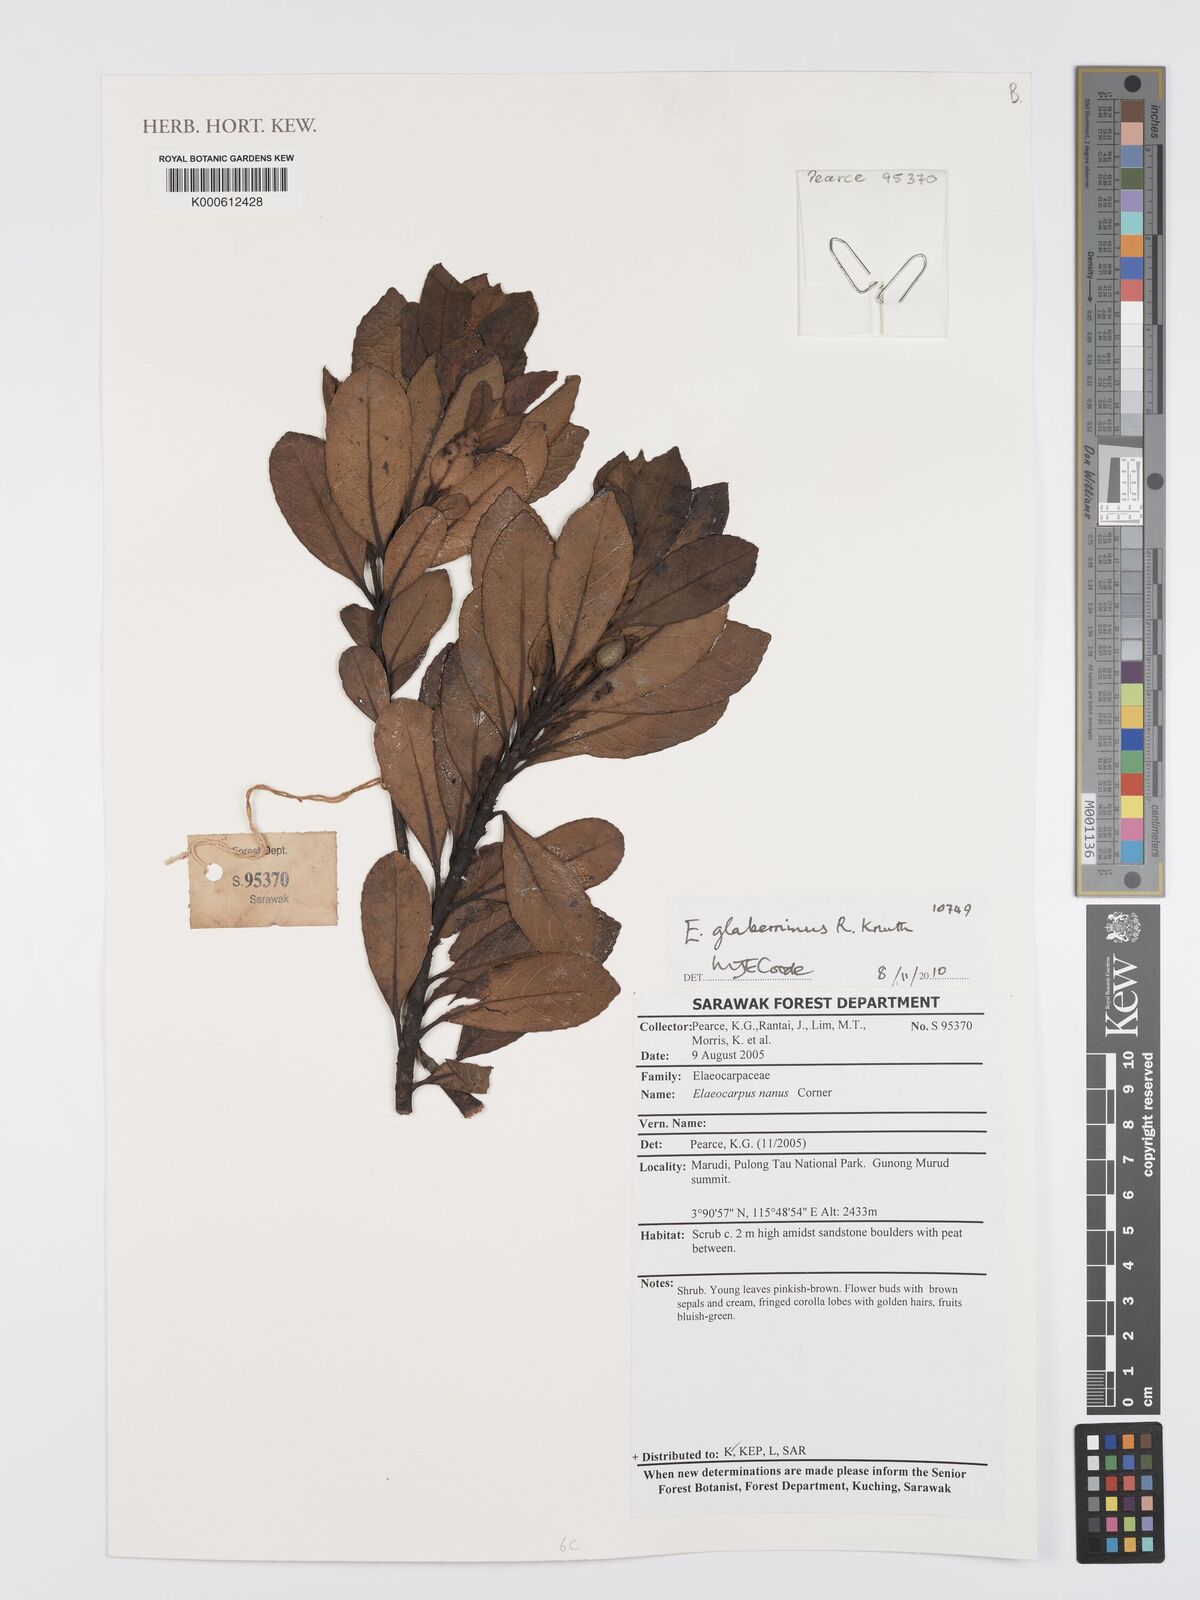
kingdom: Plantae
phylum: Tracheophyta
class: Magnoliopsida
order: Oxalidales
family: Elaeocarpaceae
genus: Elaeocarpus
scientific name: Elaeocarpus glaberrimus
